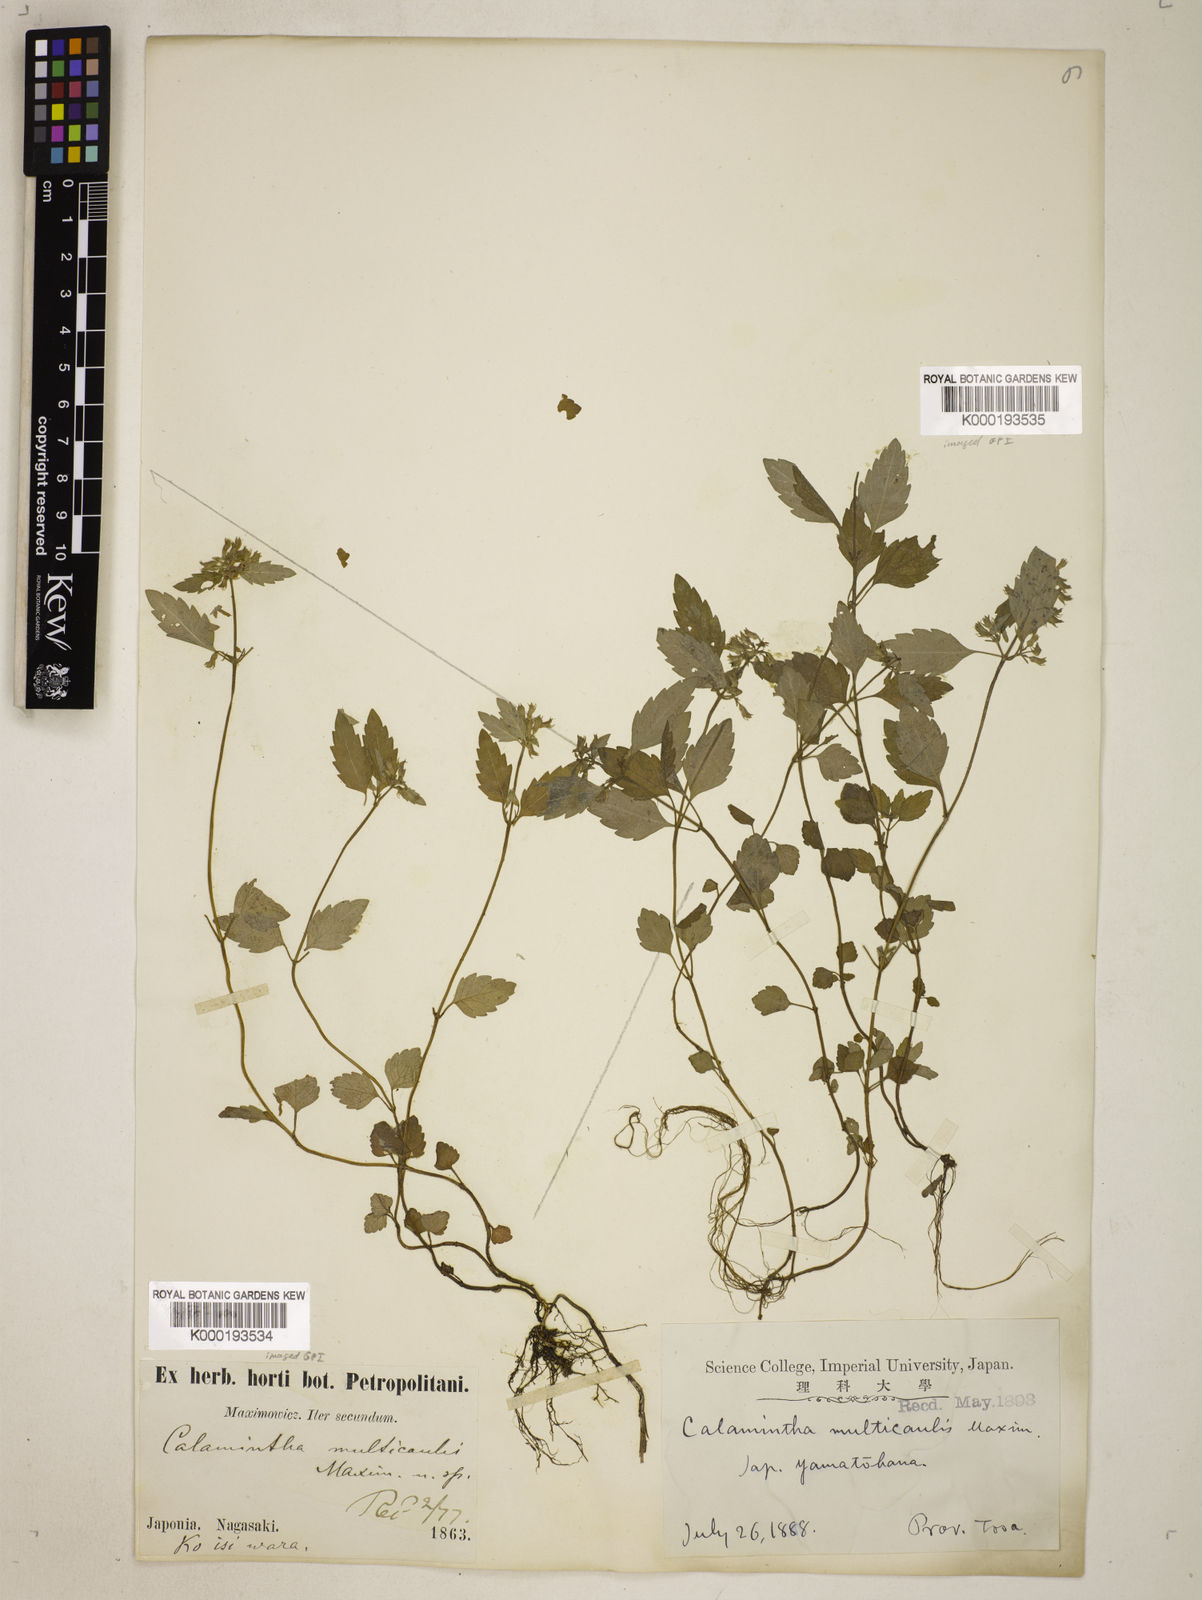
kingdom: Plantae
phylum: Tracheophyta
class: Magnoliopsida
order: Lamiales
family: Lamiaceae
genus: Clinopodium
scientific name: Clinopodium multicaule
